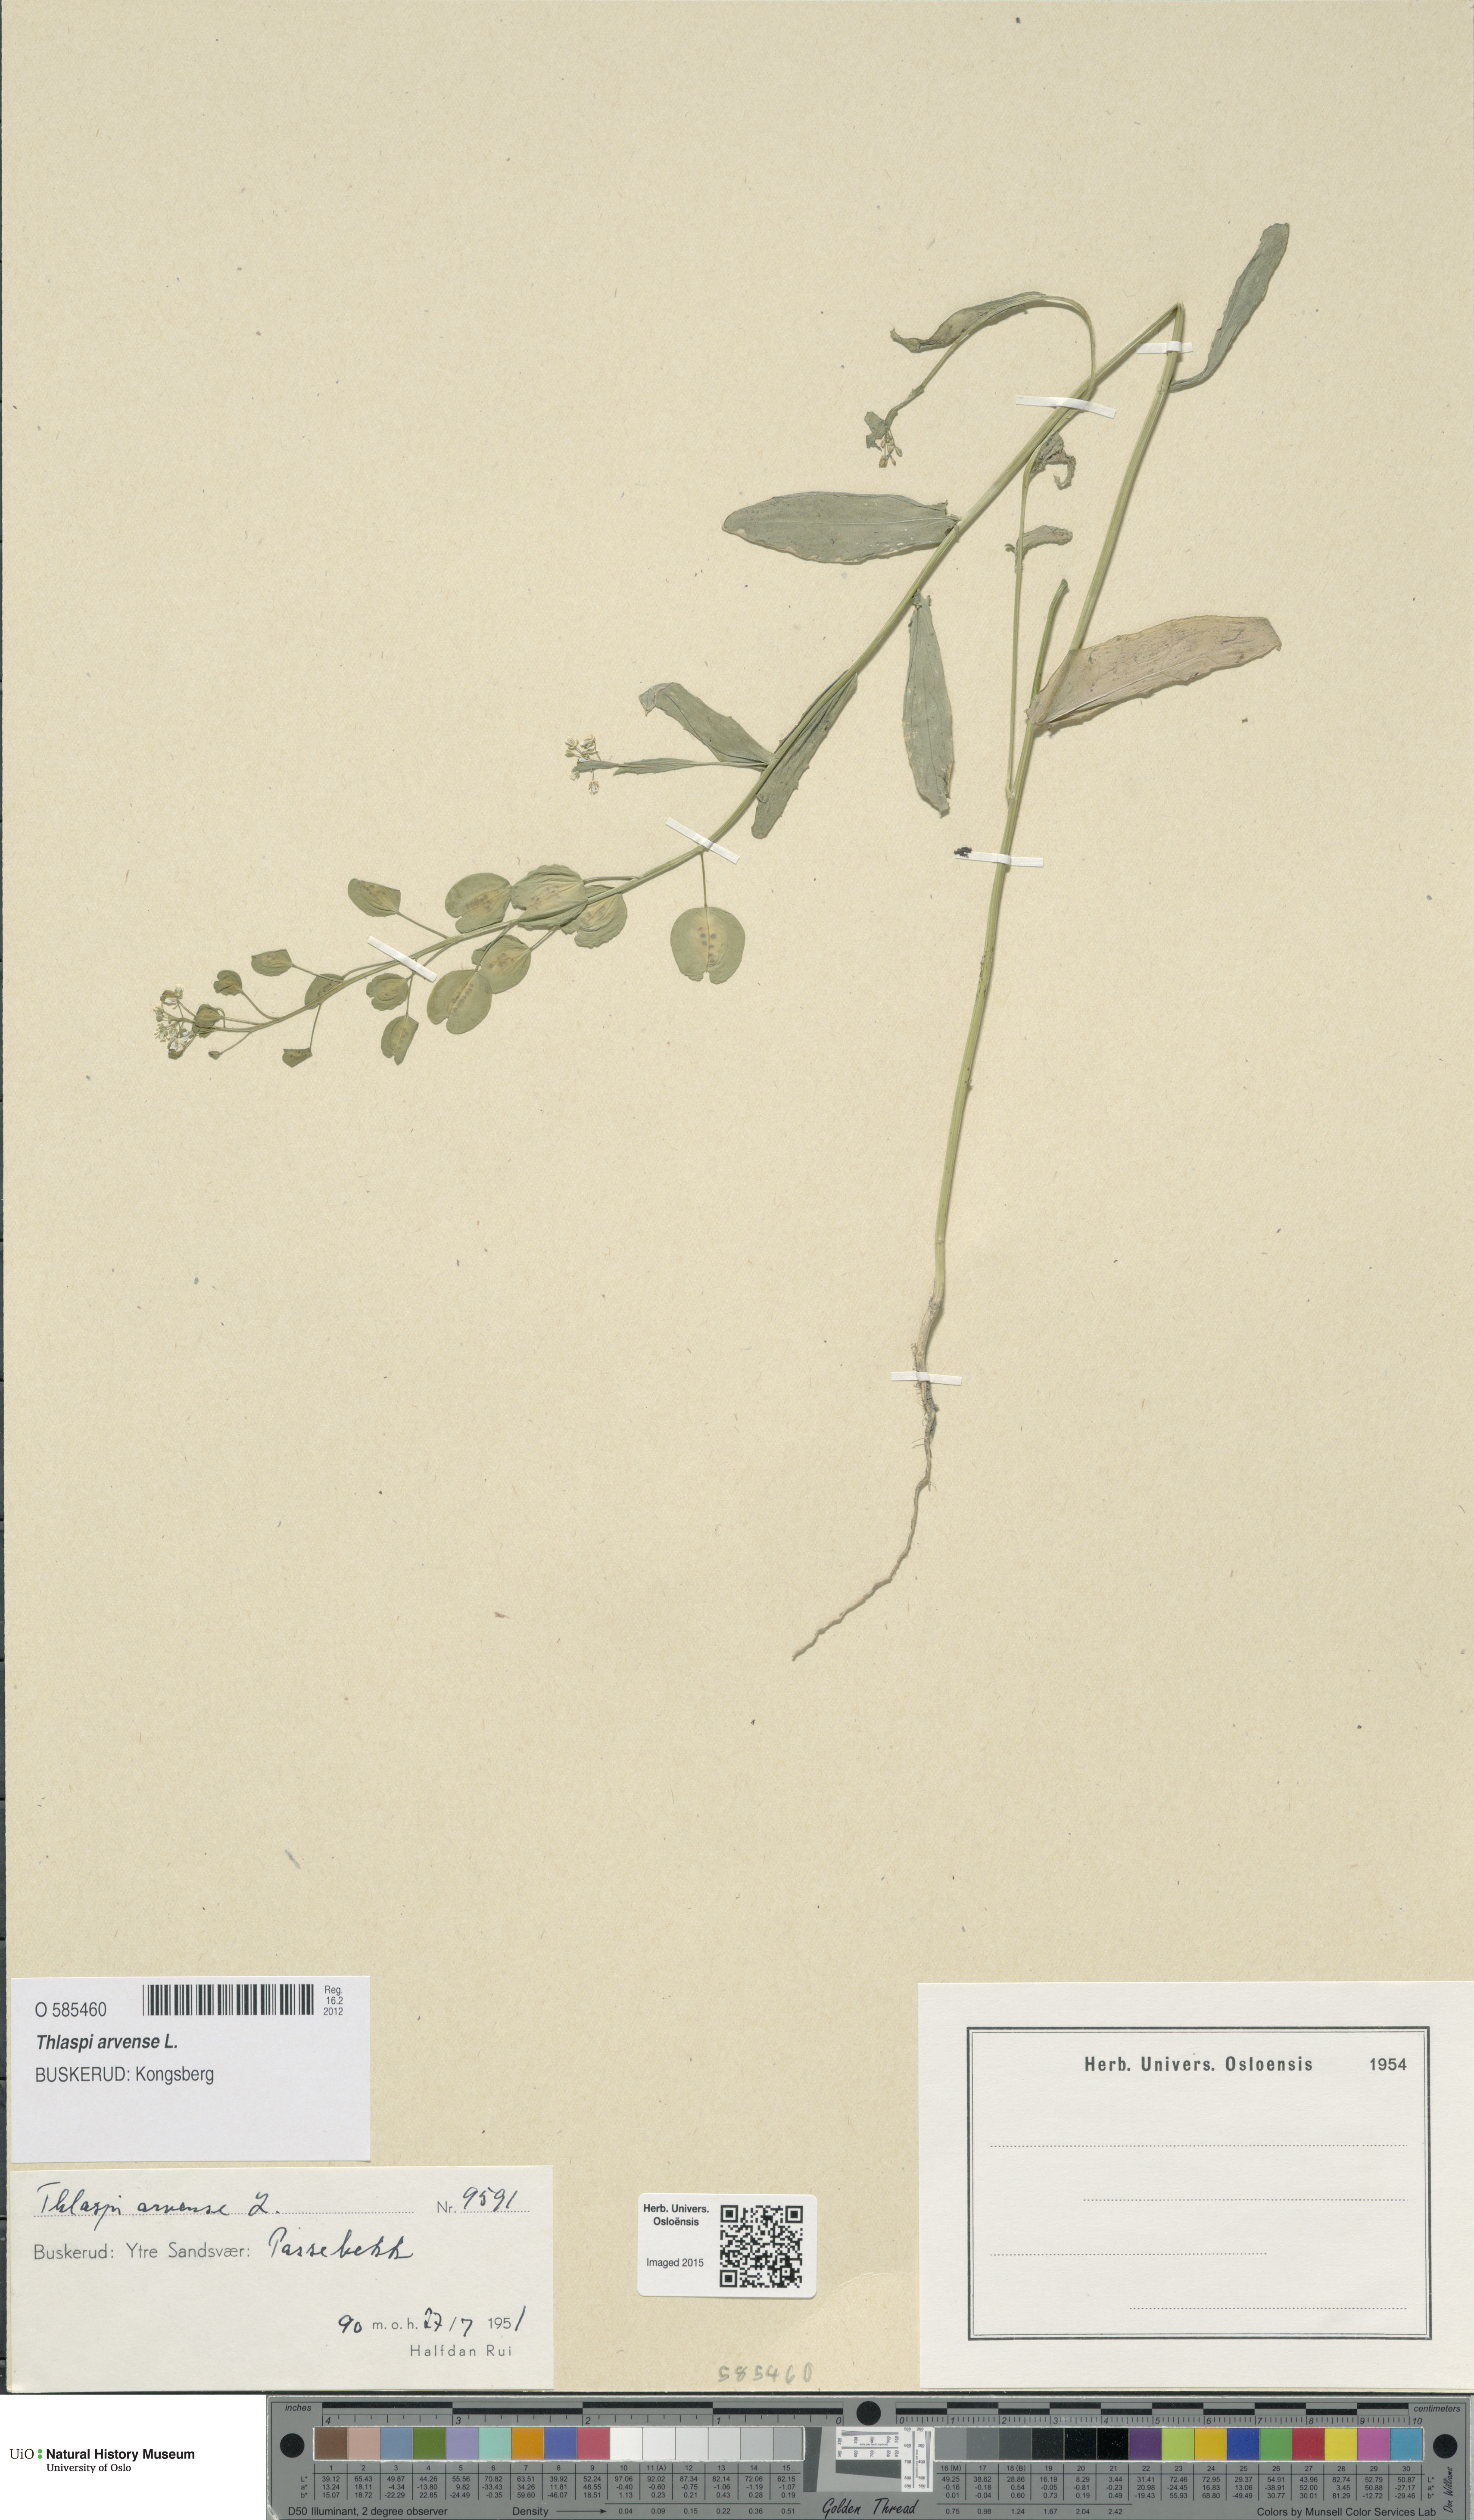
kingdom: Plantae
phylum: Tracheophyta
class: Magnoliopsida
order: Brassicales
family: Brassicaceae
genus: Thlaspi
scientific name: Thlaspi arvense
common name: Field pennycress
